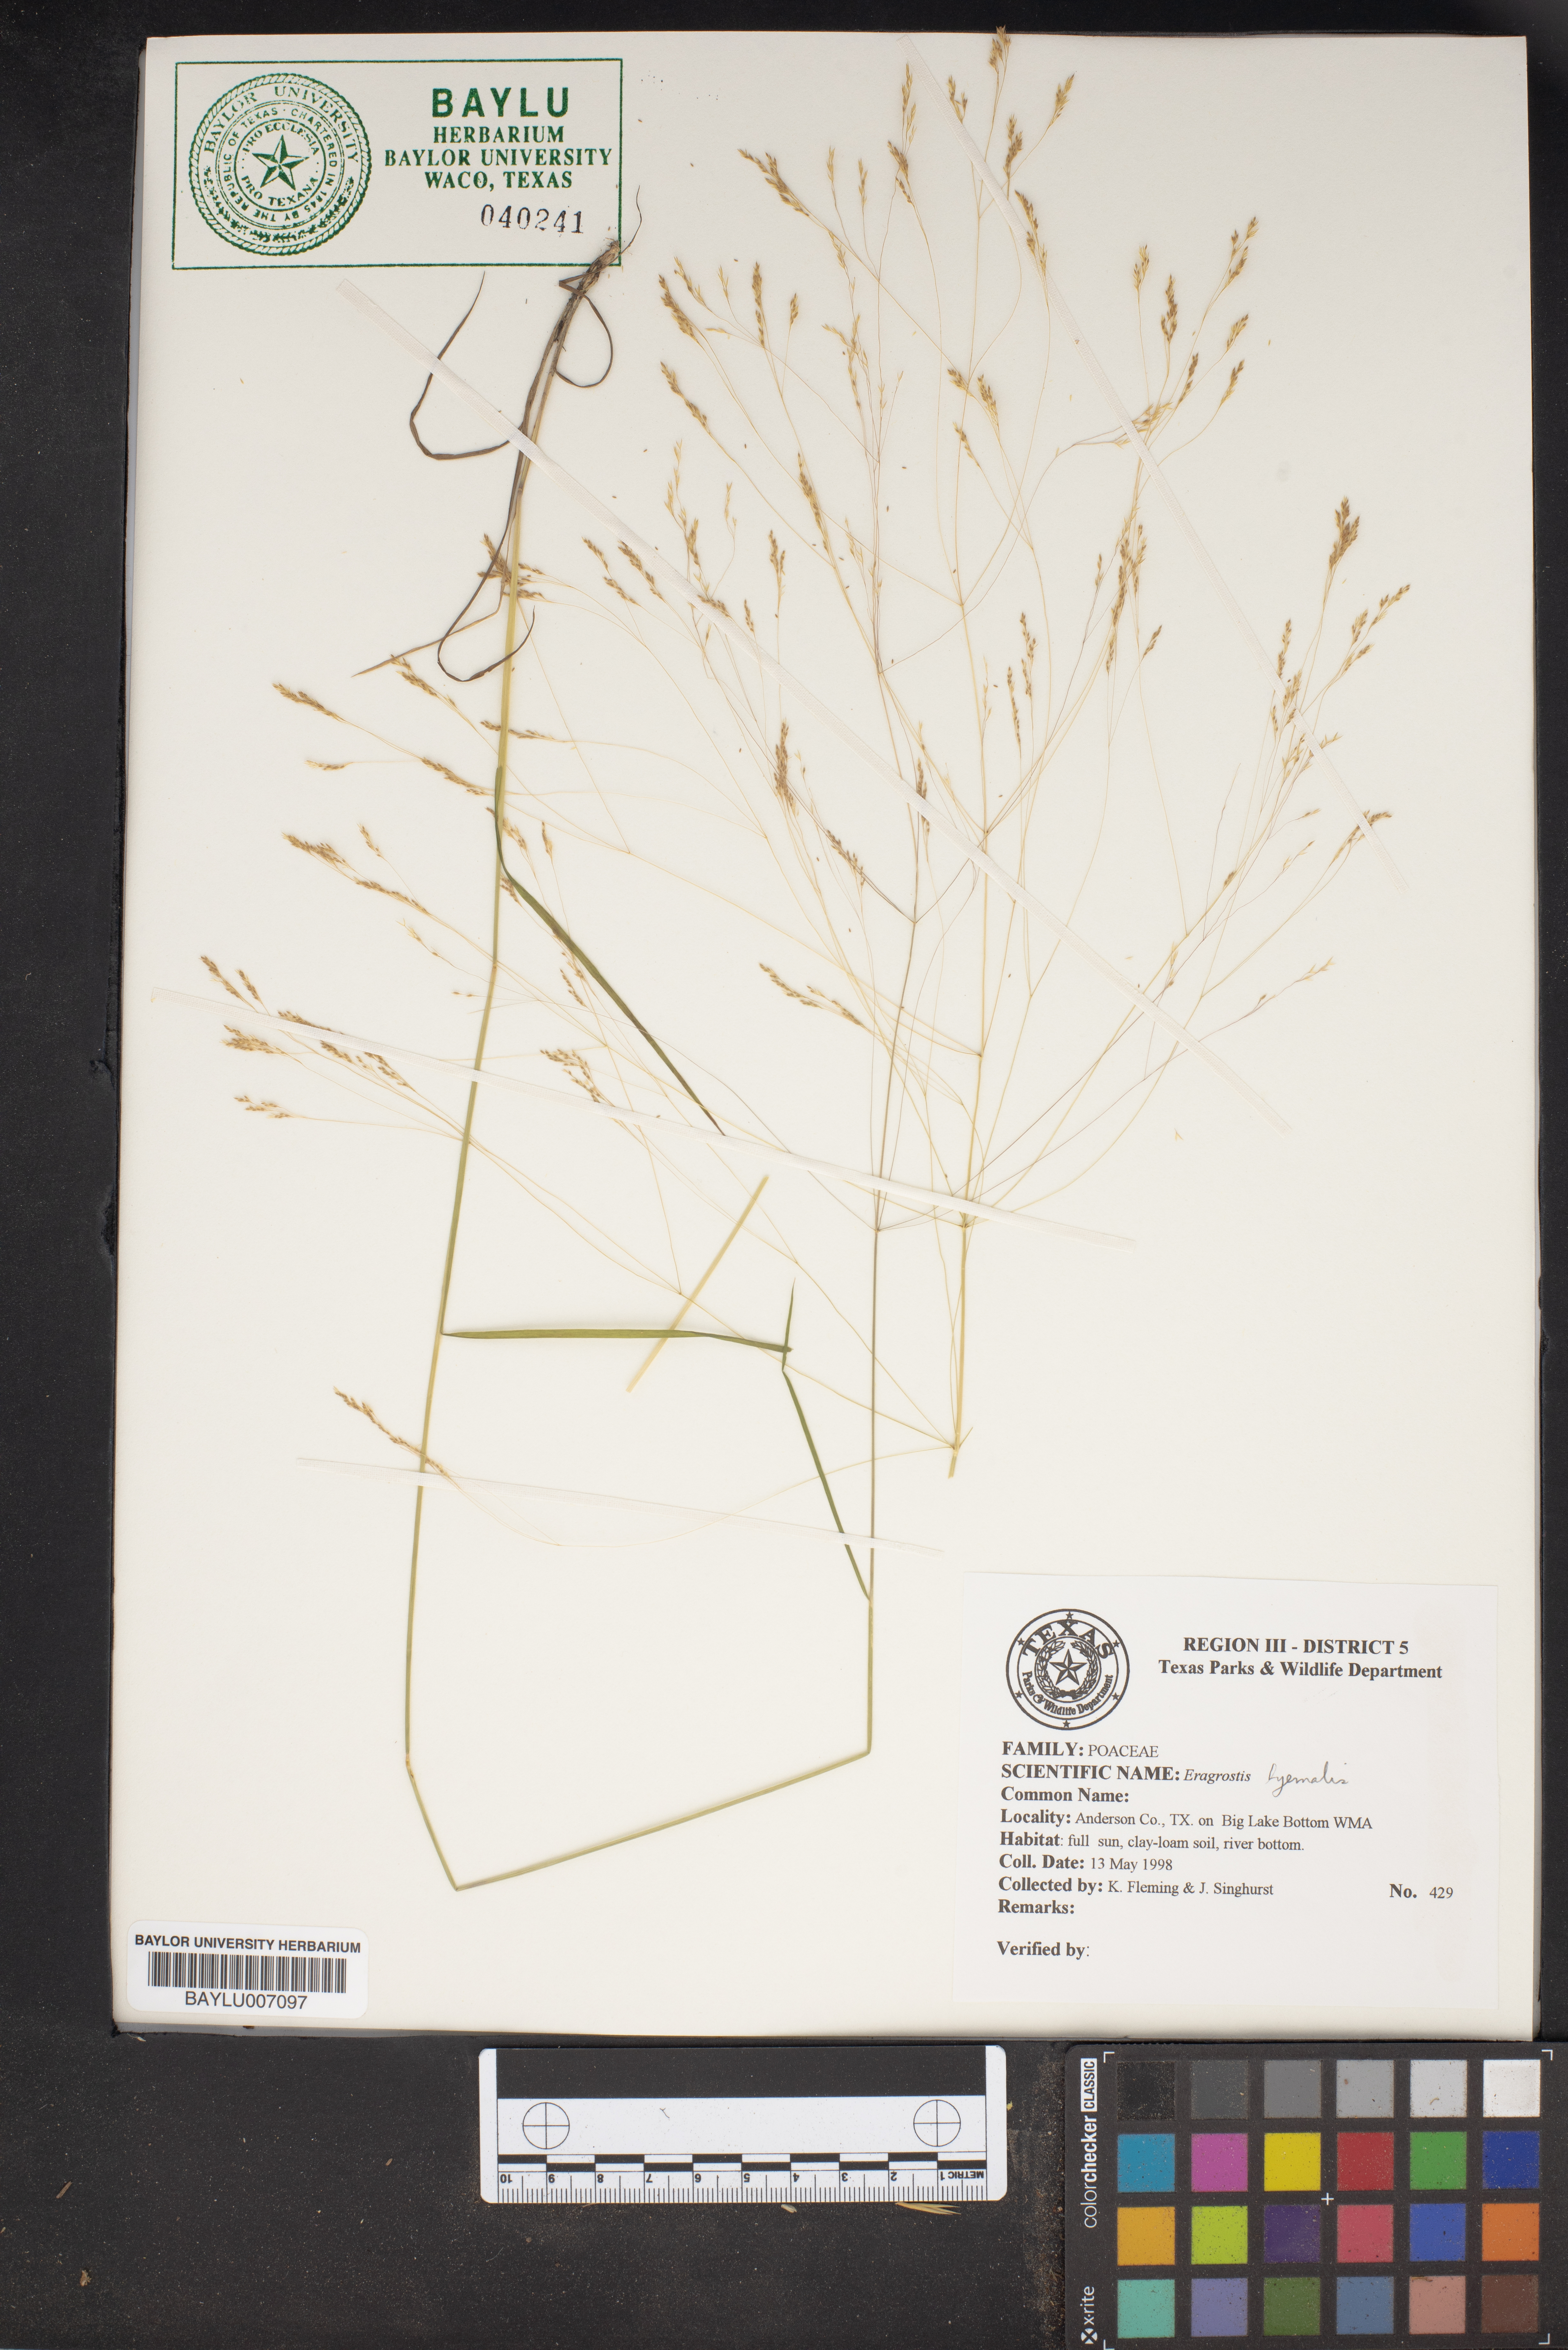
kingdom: Plantae
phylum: Tracheophyta
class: Liliopsida
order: Poales
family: Poaceae
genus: Eragrostis
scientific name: Eragrostis hypnoides
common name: Creeping love grass
